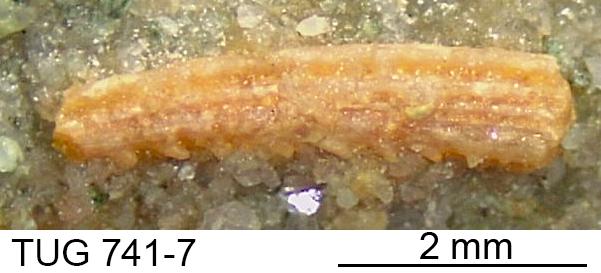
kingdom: Animalia
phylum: Chordata
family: Acanthodidae
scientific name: Acanthodidae
